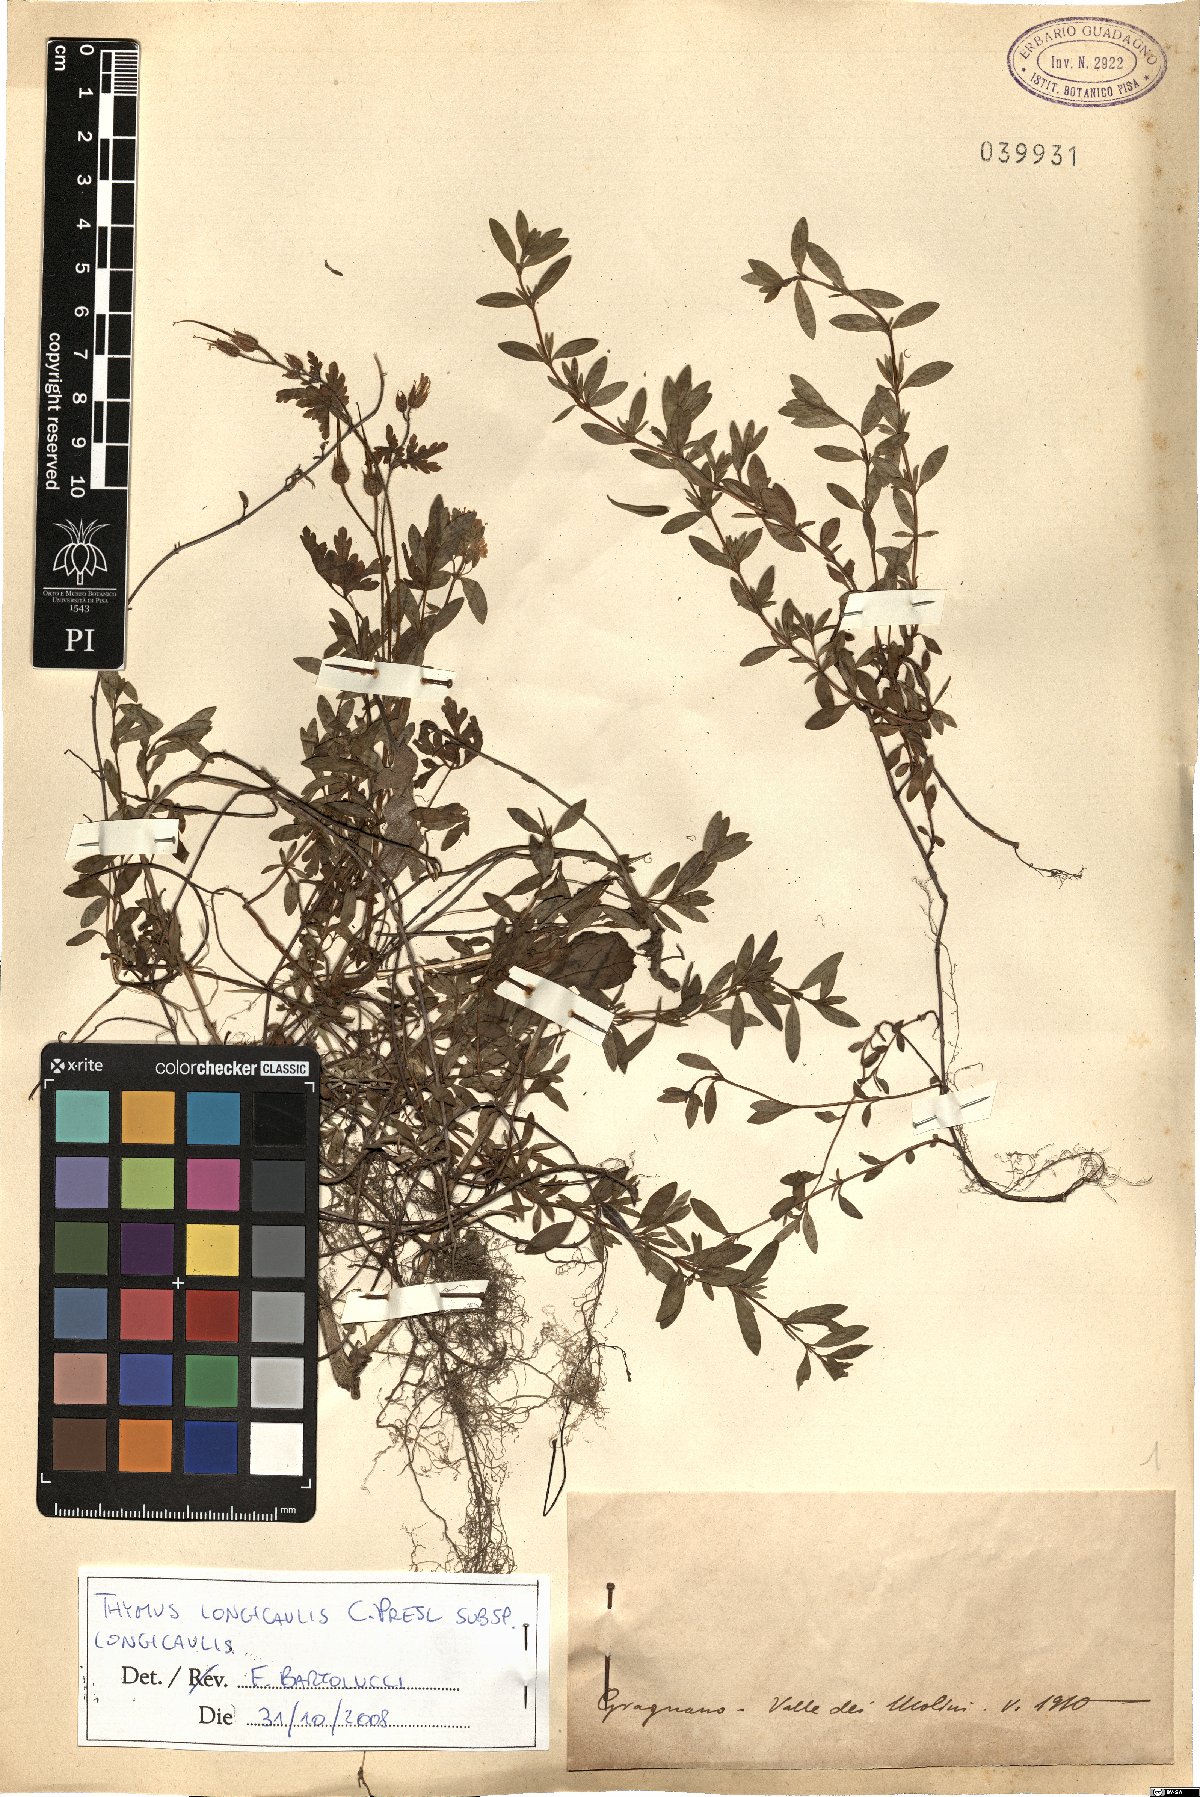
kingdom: Plantae
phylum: Tracheophyta
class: Magnoliopsida
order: Lamiales
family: Lamiaceae
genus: Thymus
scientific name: Thymus longicaulis
